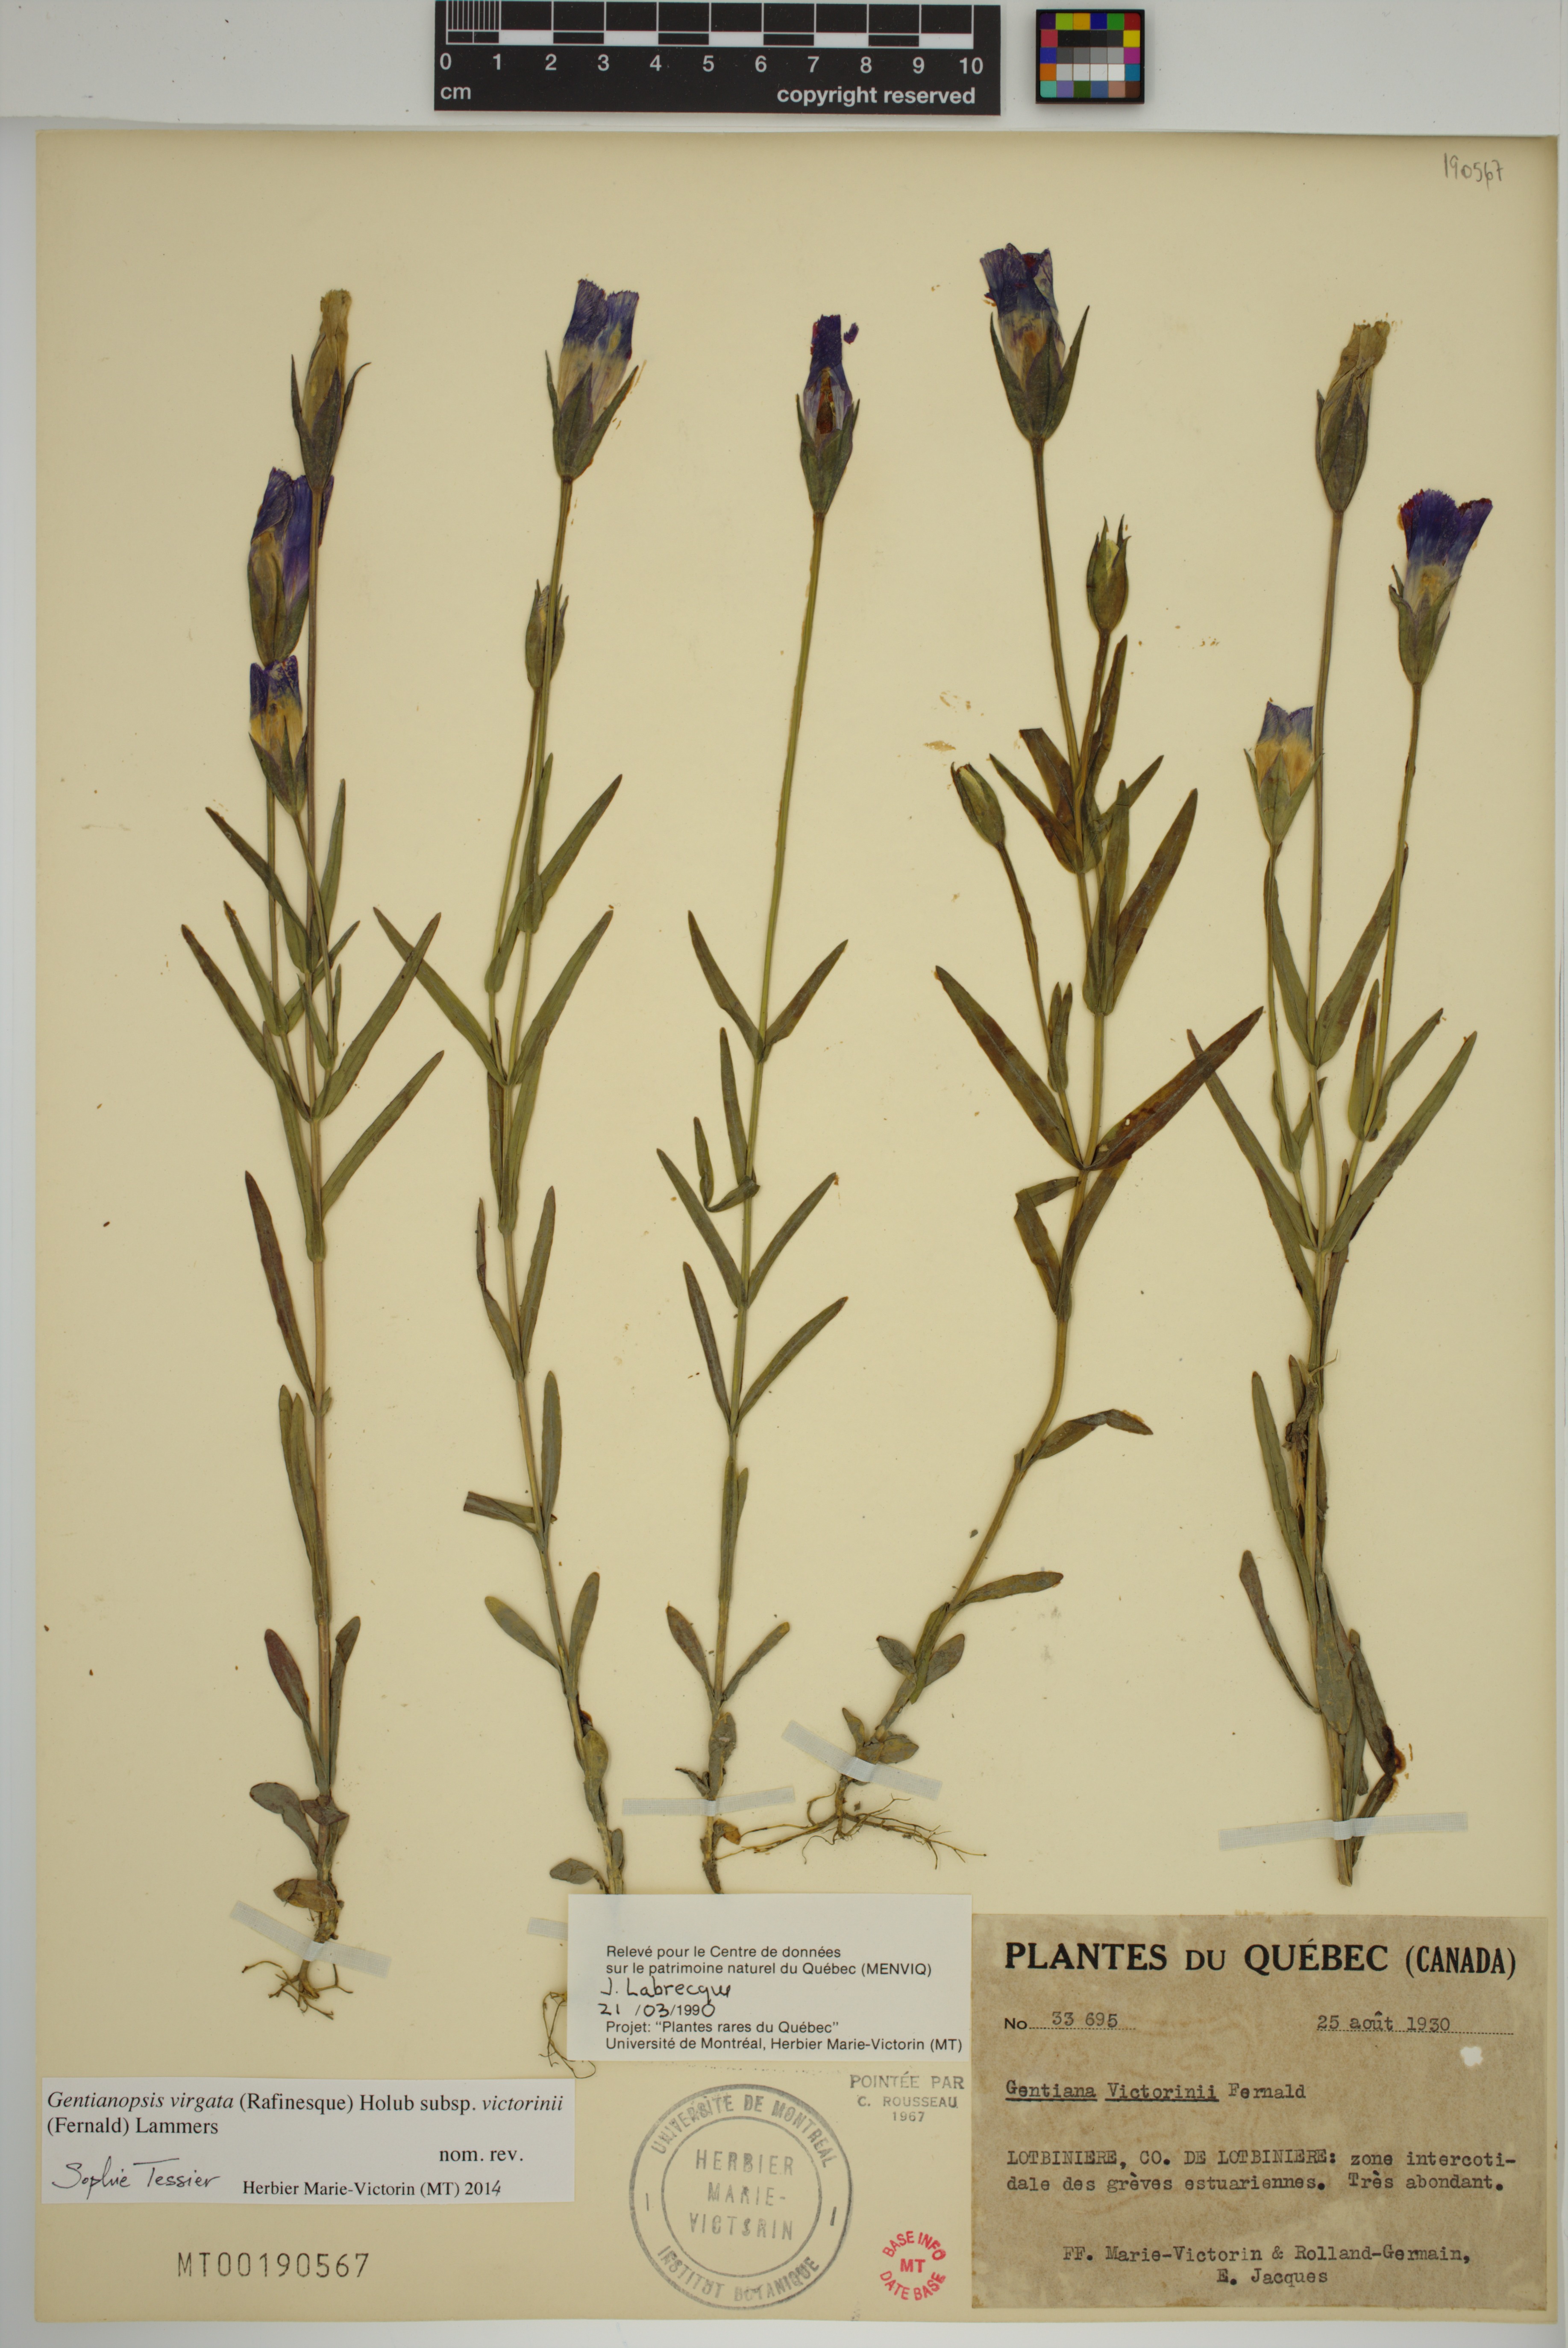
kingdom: Plantae
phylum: Tracheophyta
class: Magnoliopsida
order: Gentianales
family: Gentianaceae
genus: Gentianopsis
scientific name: Gentianopsis victorinii
